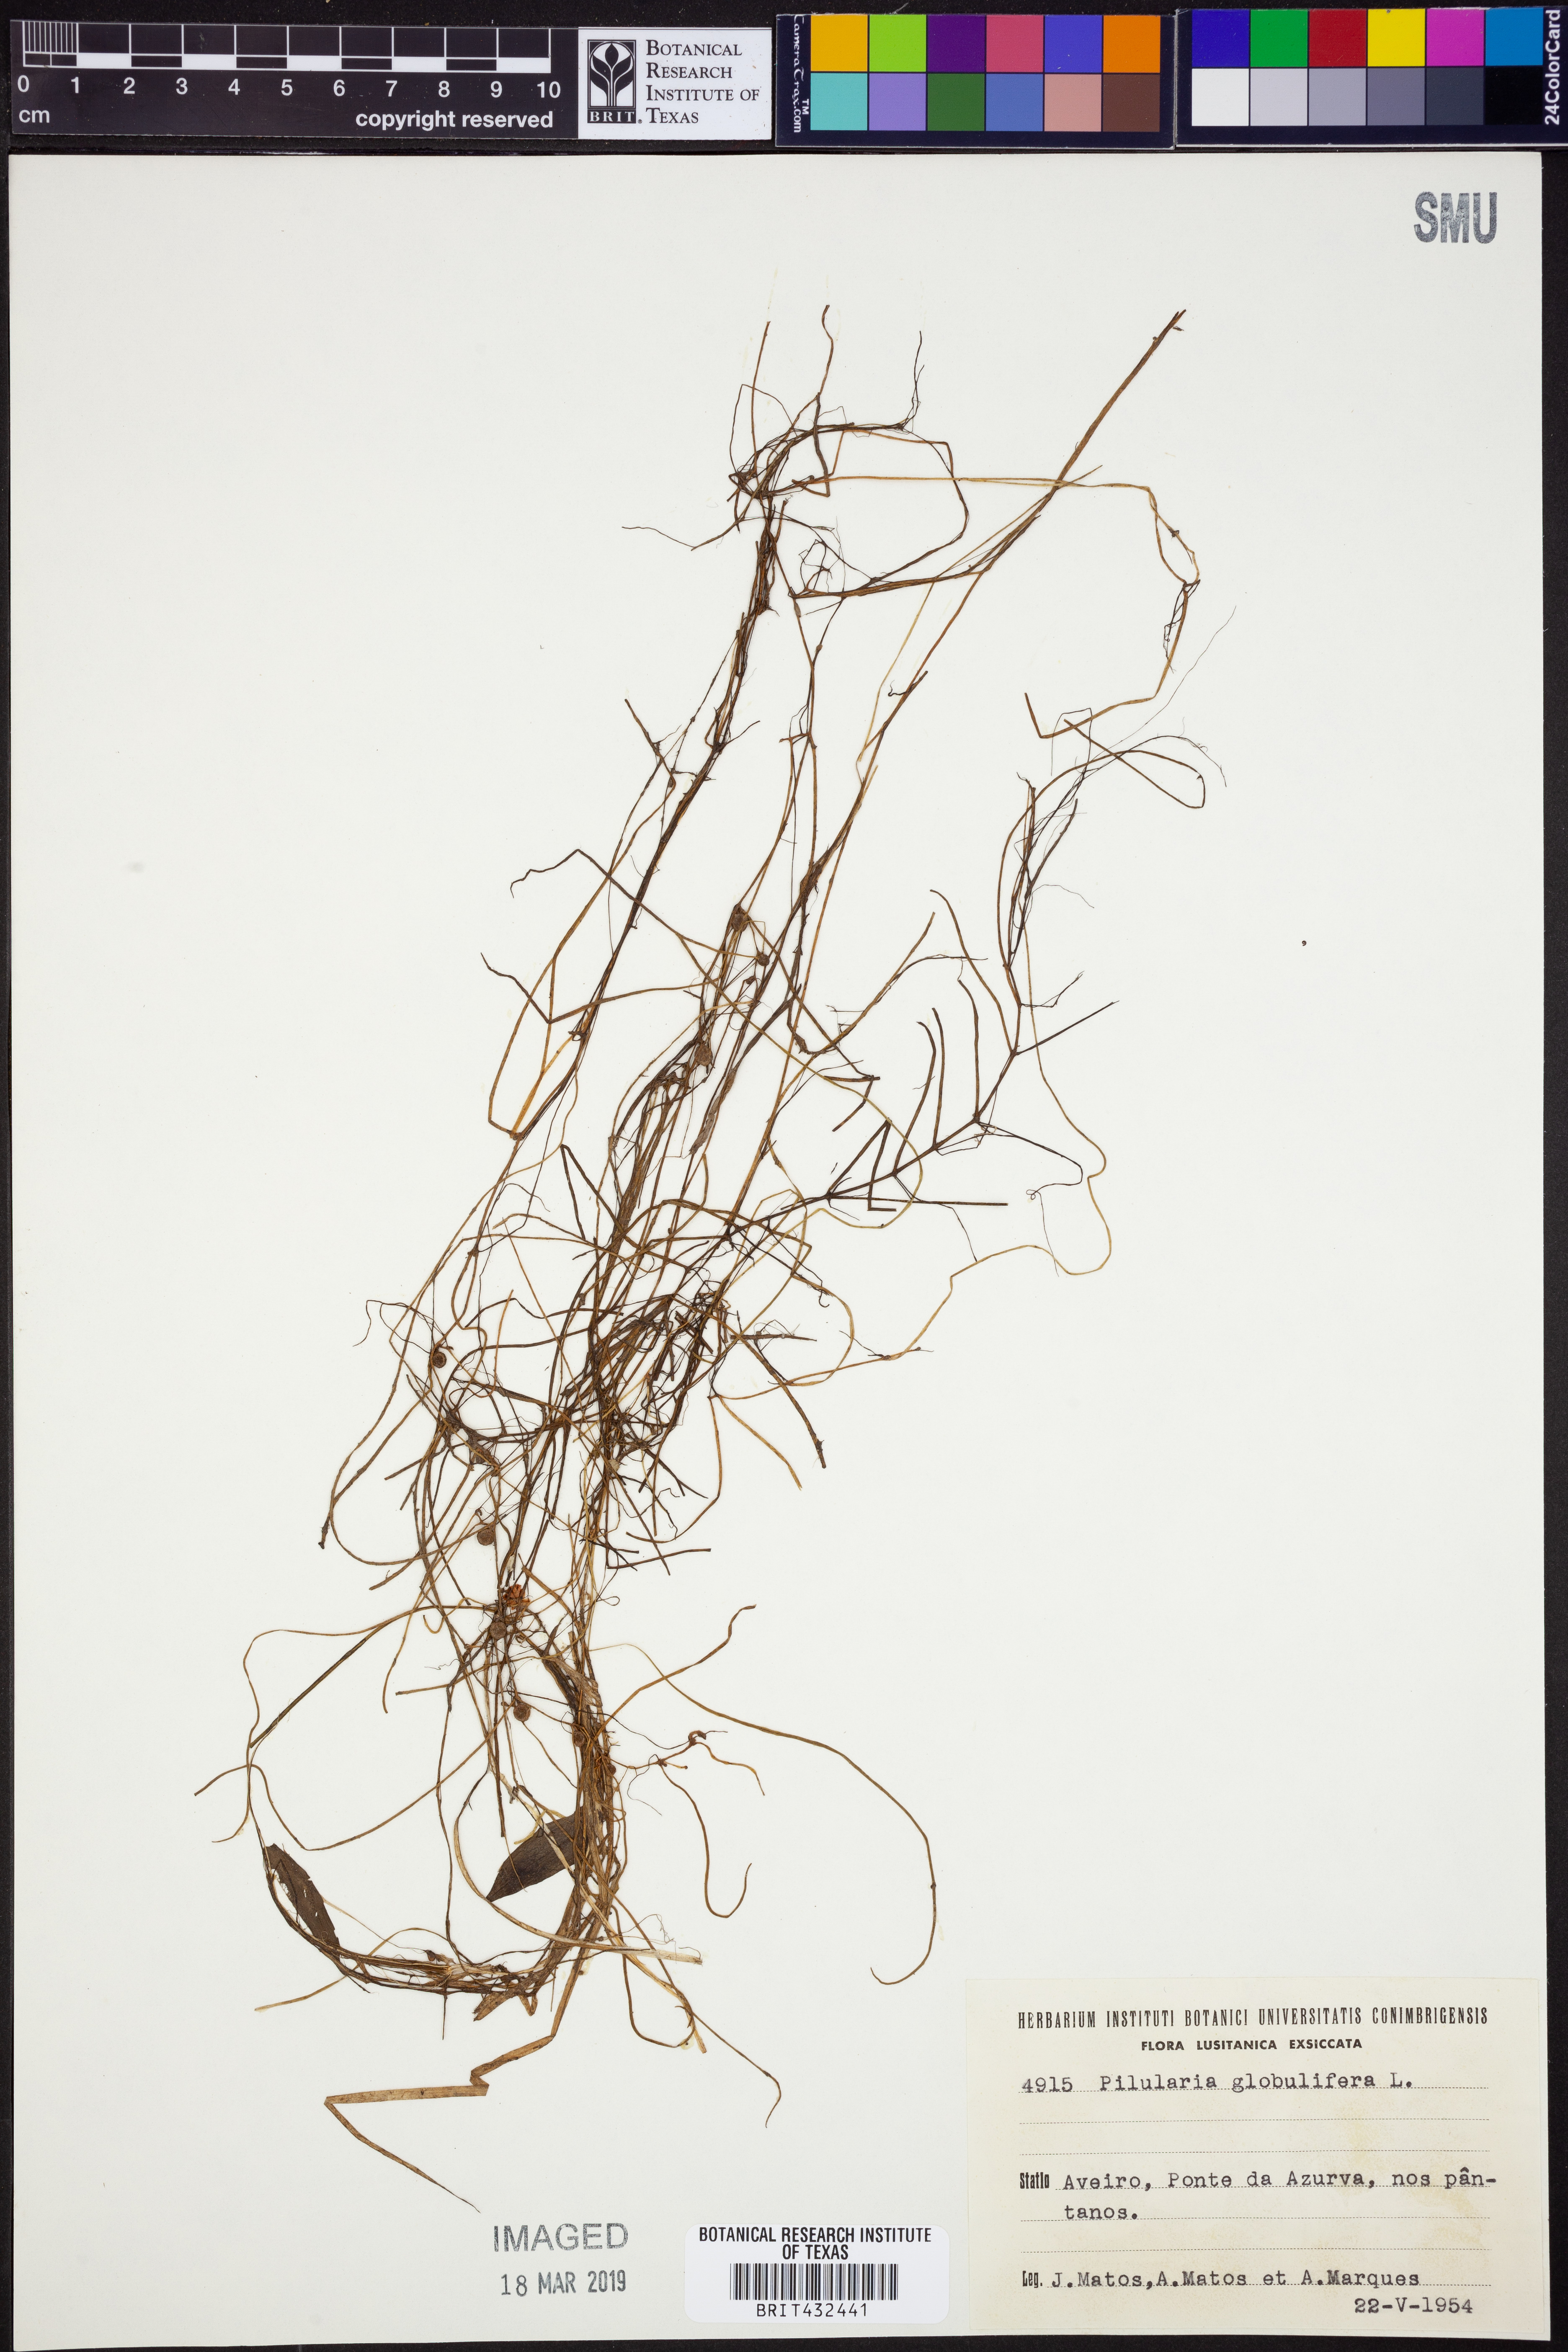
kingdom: Plantae
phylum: Tracheophyta
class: Polypodiopsida
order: Salviniales
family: Marsileaceae
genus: Pilularia
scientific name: Pilularia globulifera
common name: Pillwort
